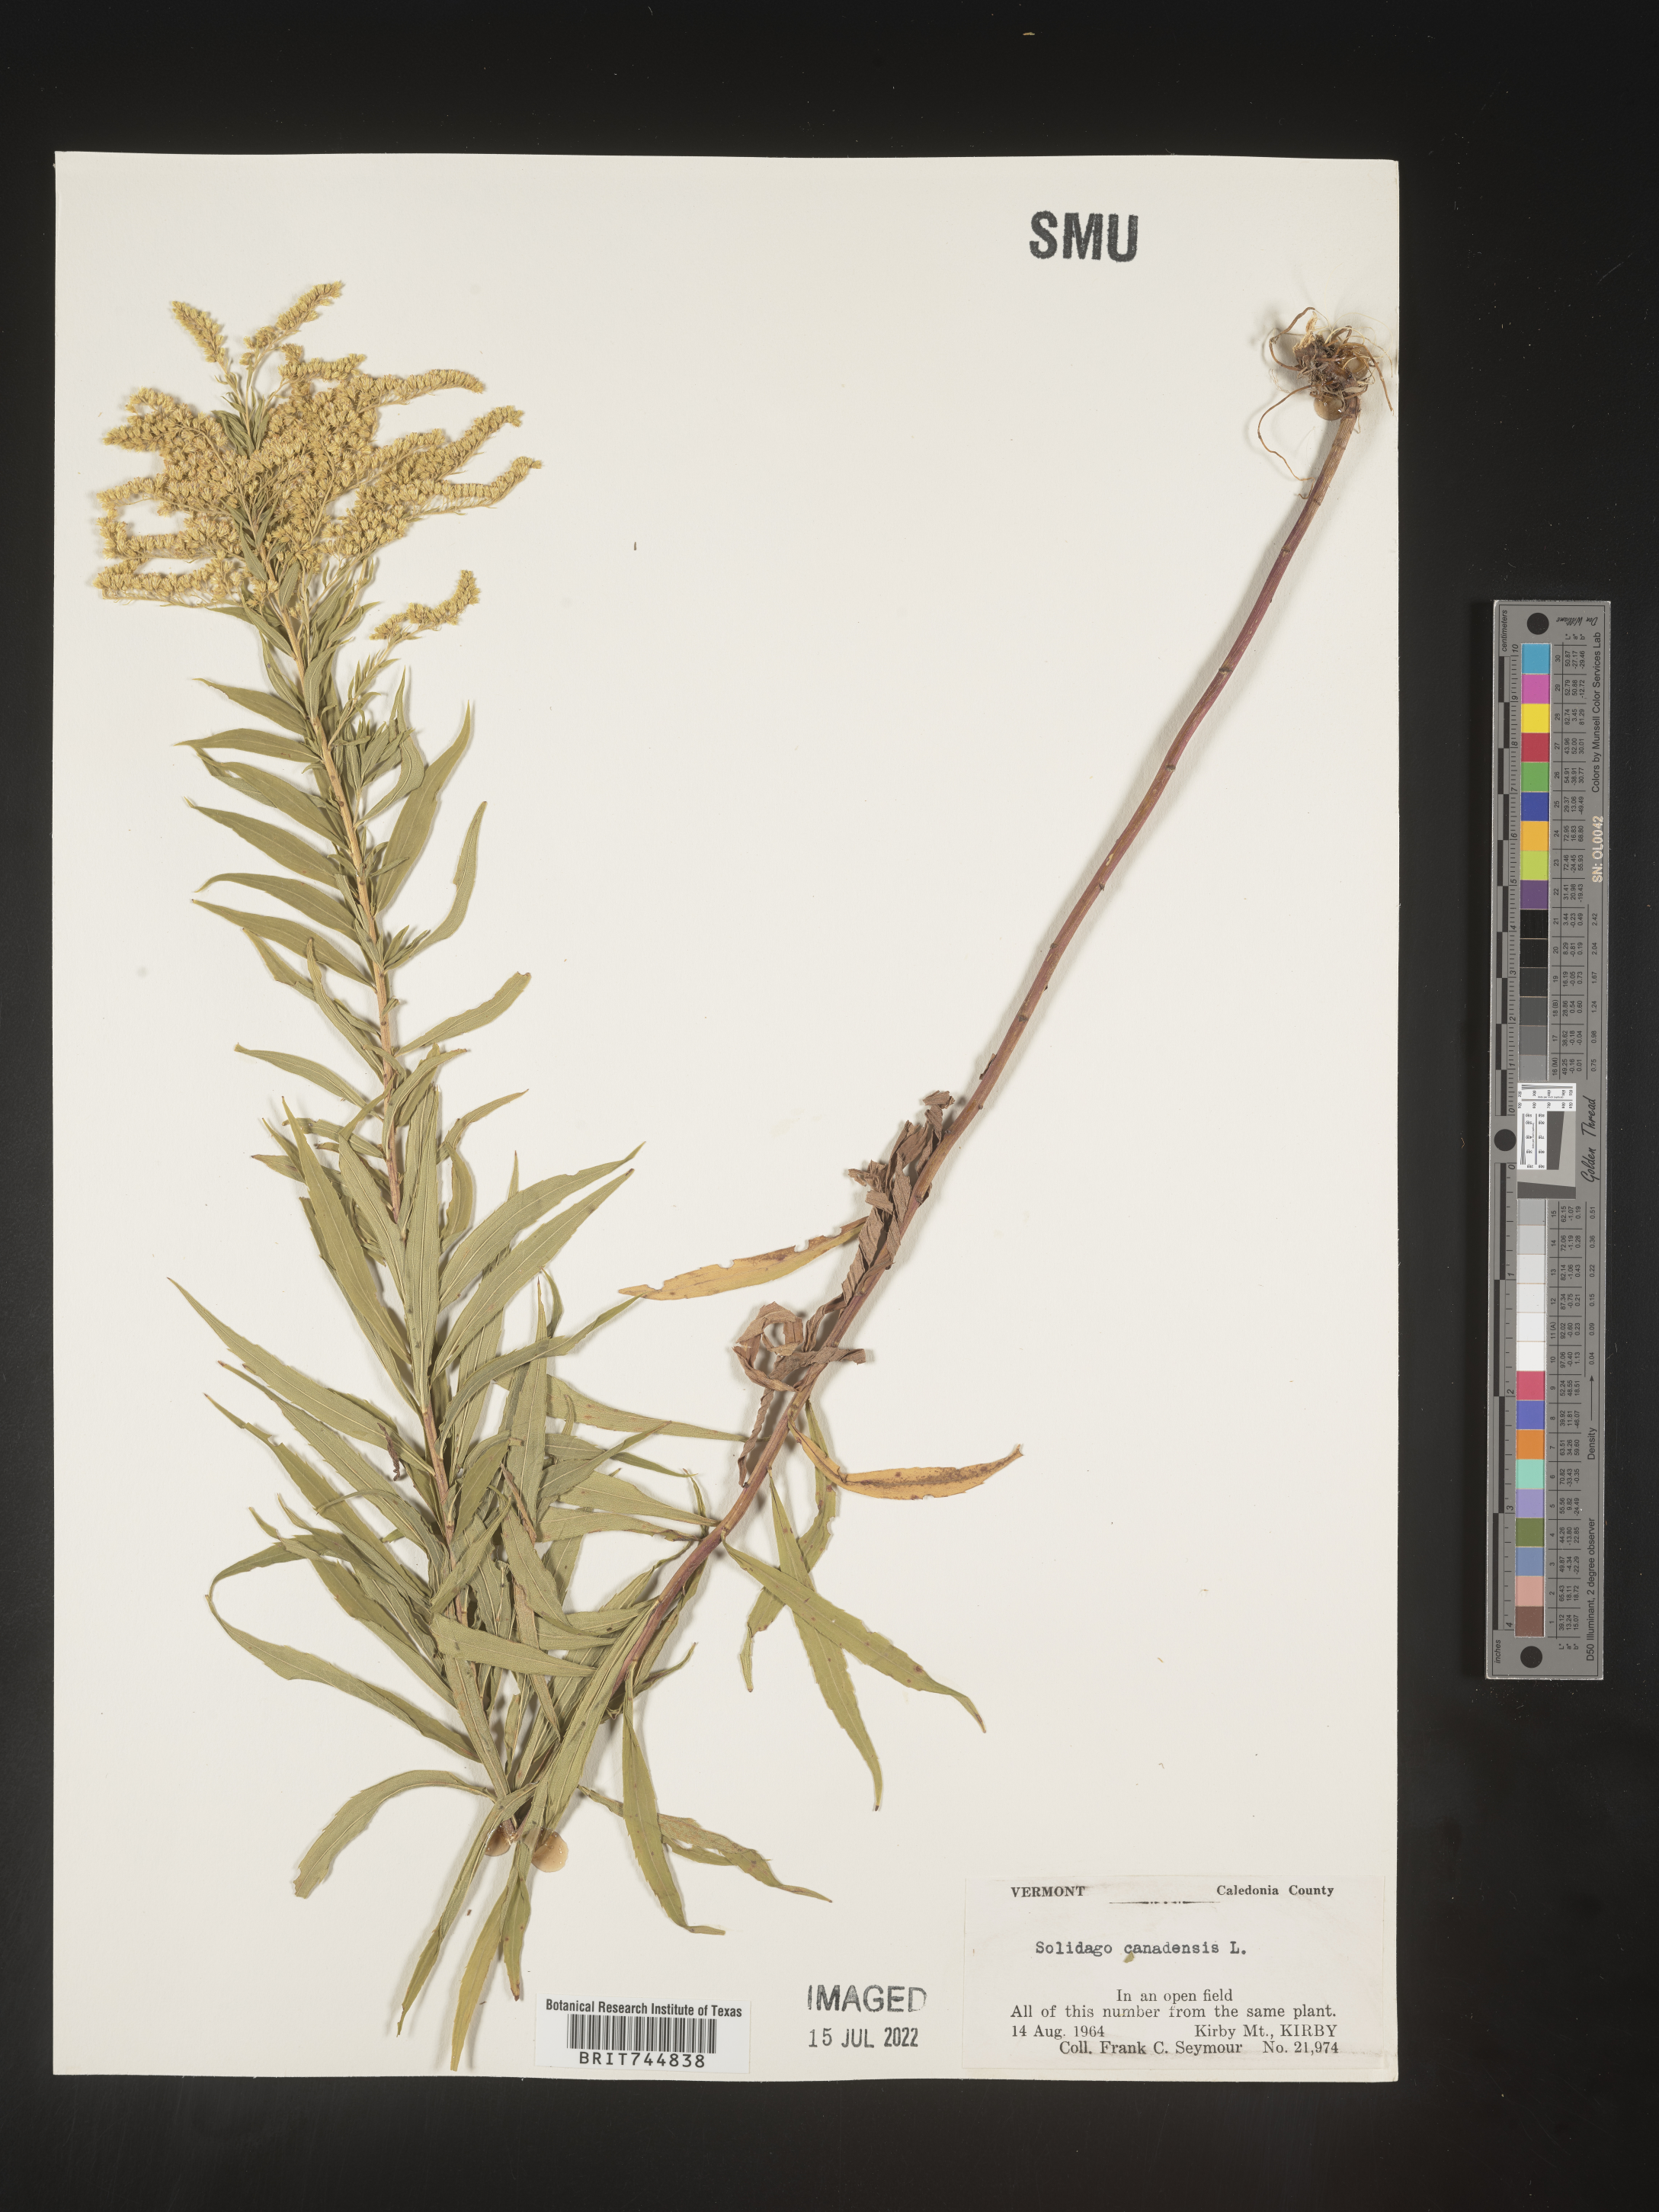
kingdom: Plantae
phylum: Tracheophyta
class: Magnoliopsida
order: Asterales
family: Asteraceae
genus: Solidago
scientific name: Solidago canadensis
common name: Canada goldenrod
